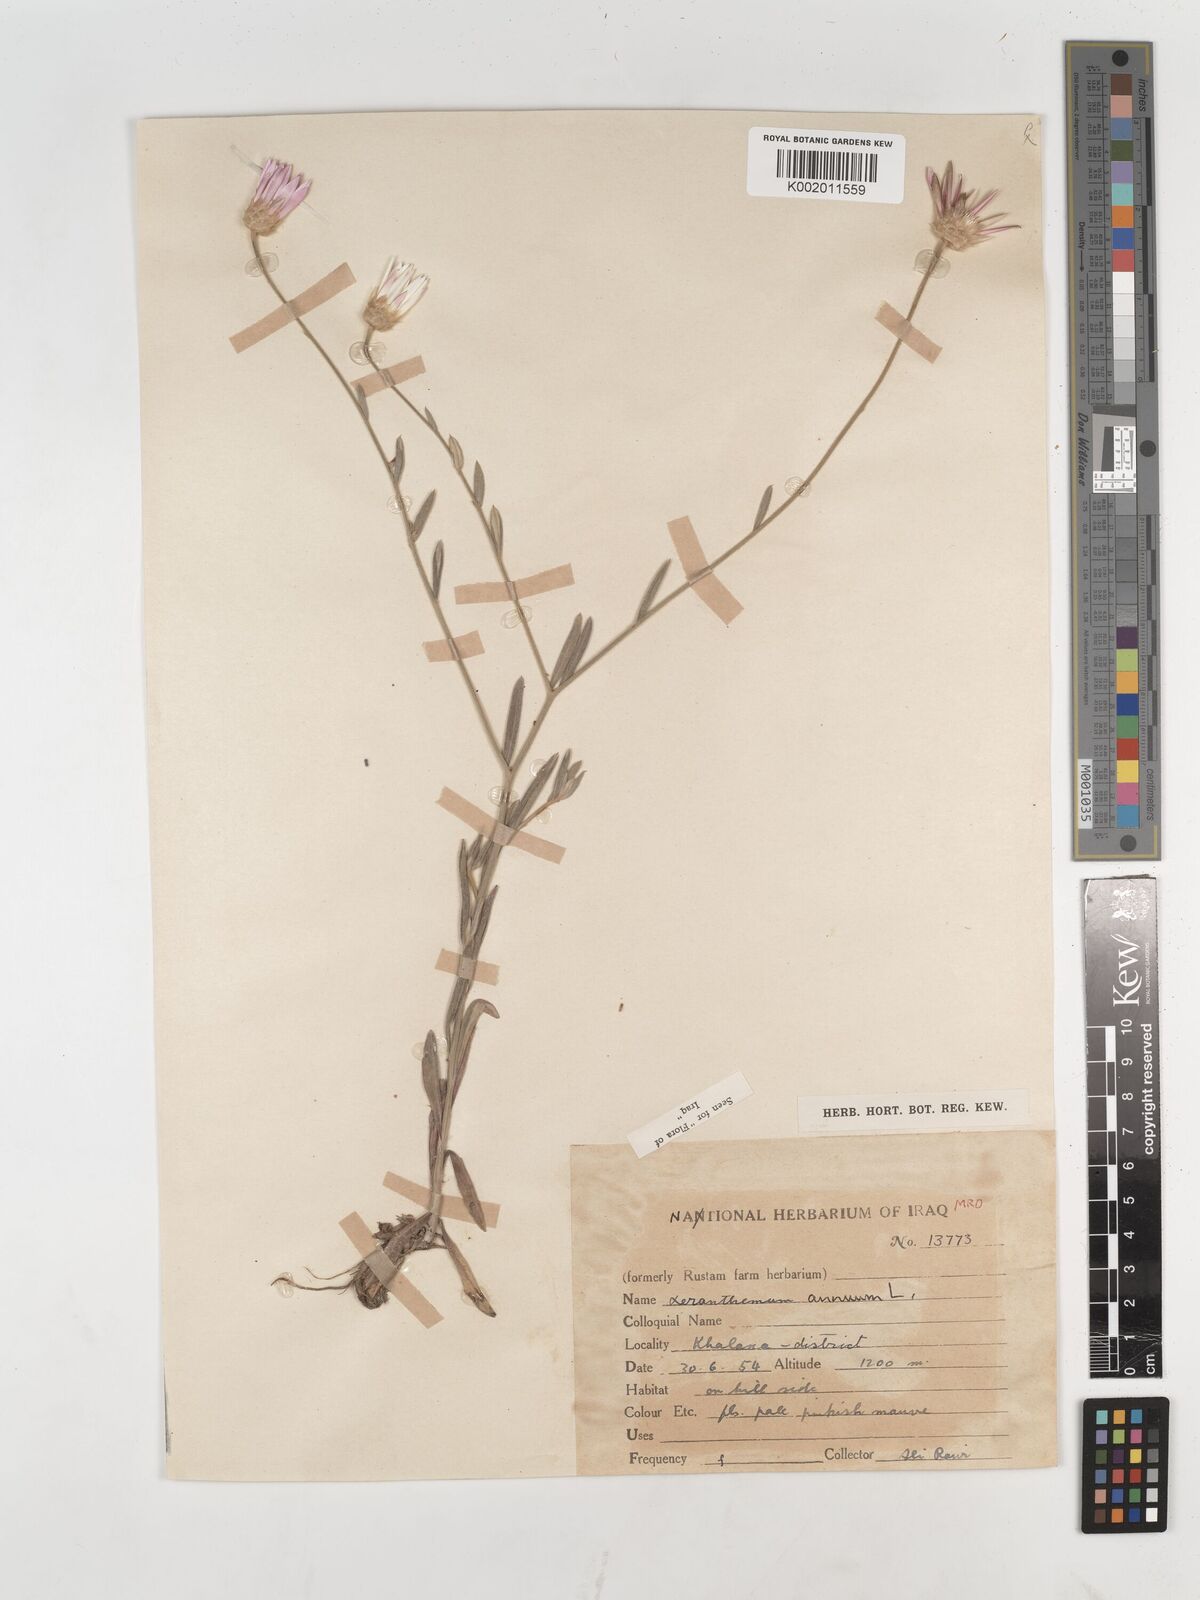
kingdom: Plantae
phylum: Tracheophyta
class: Magnoliopsida
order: Asterales
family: Asteraceae
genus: Xeranthemum
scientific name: Xeranthemum annuum
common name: Immortelle
